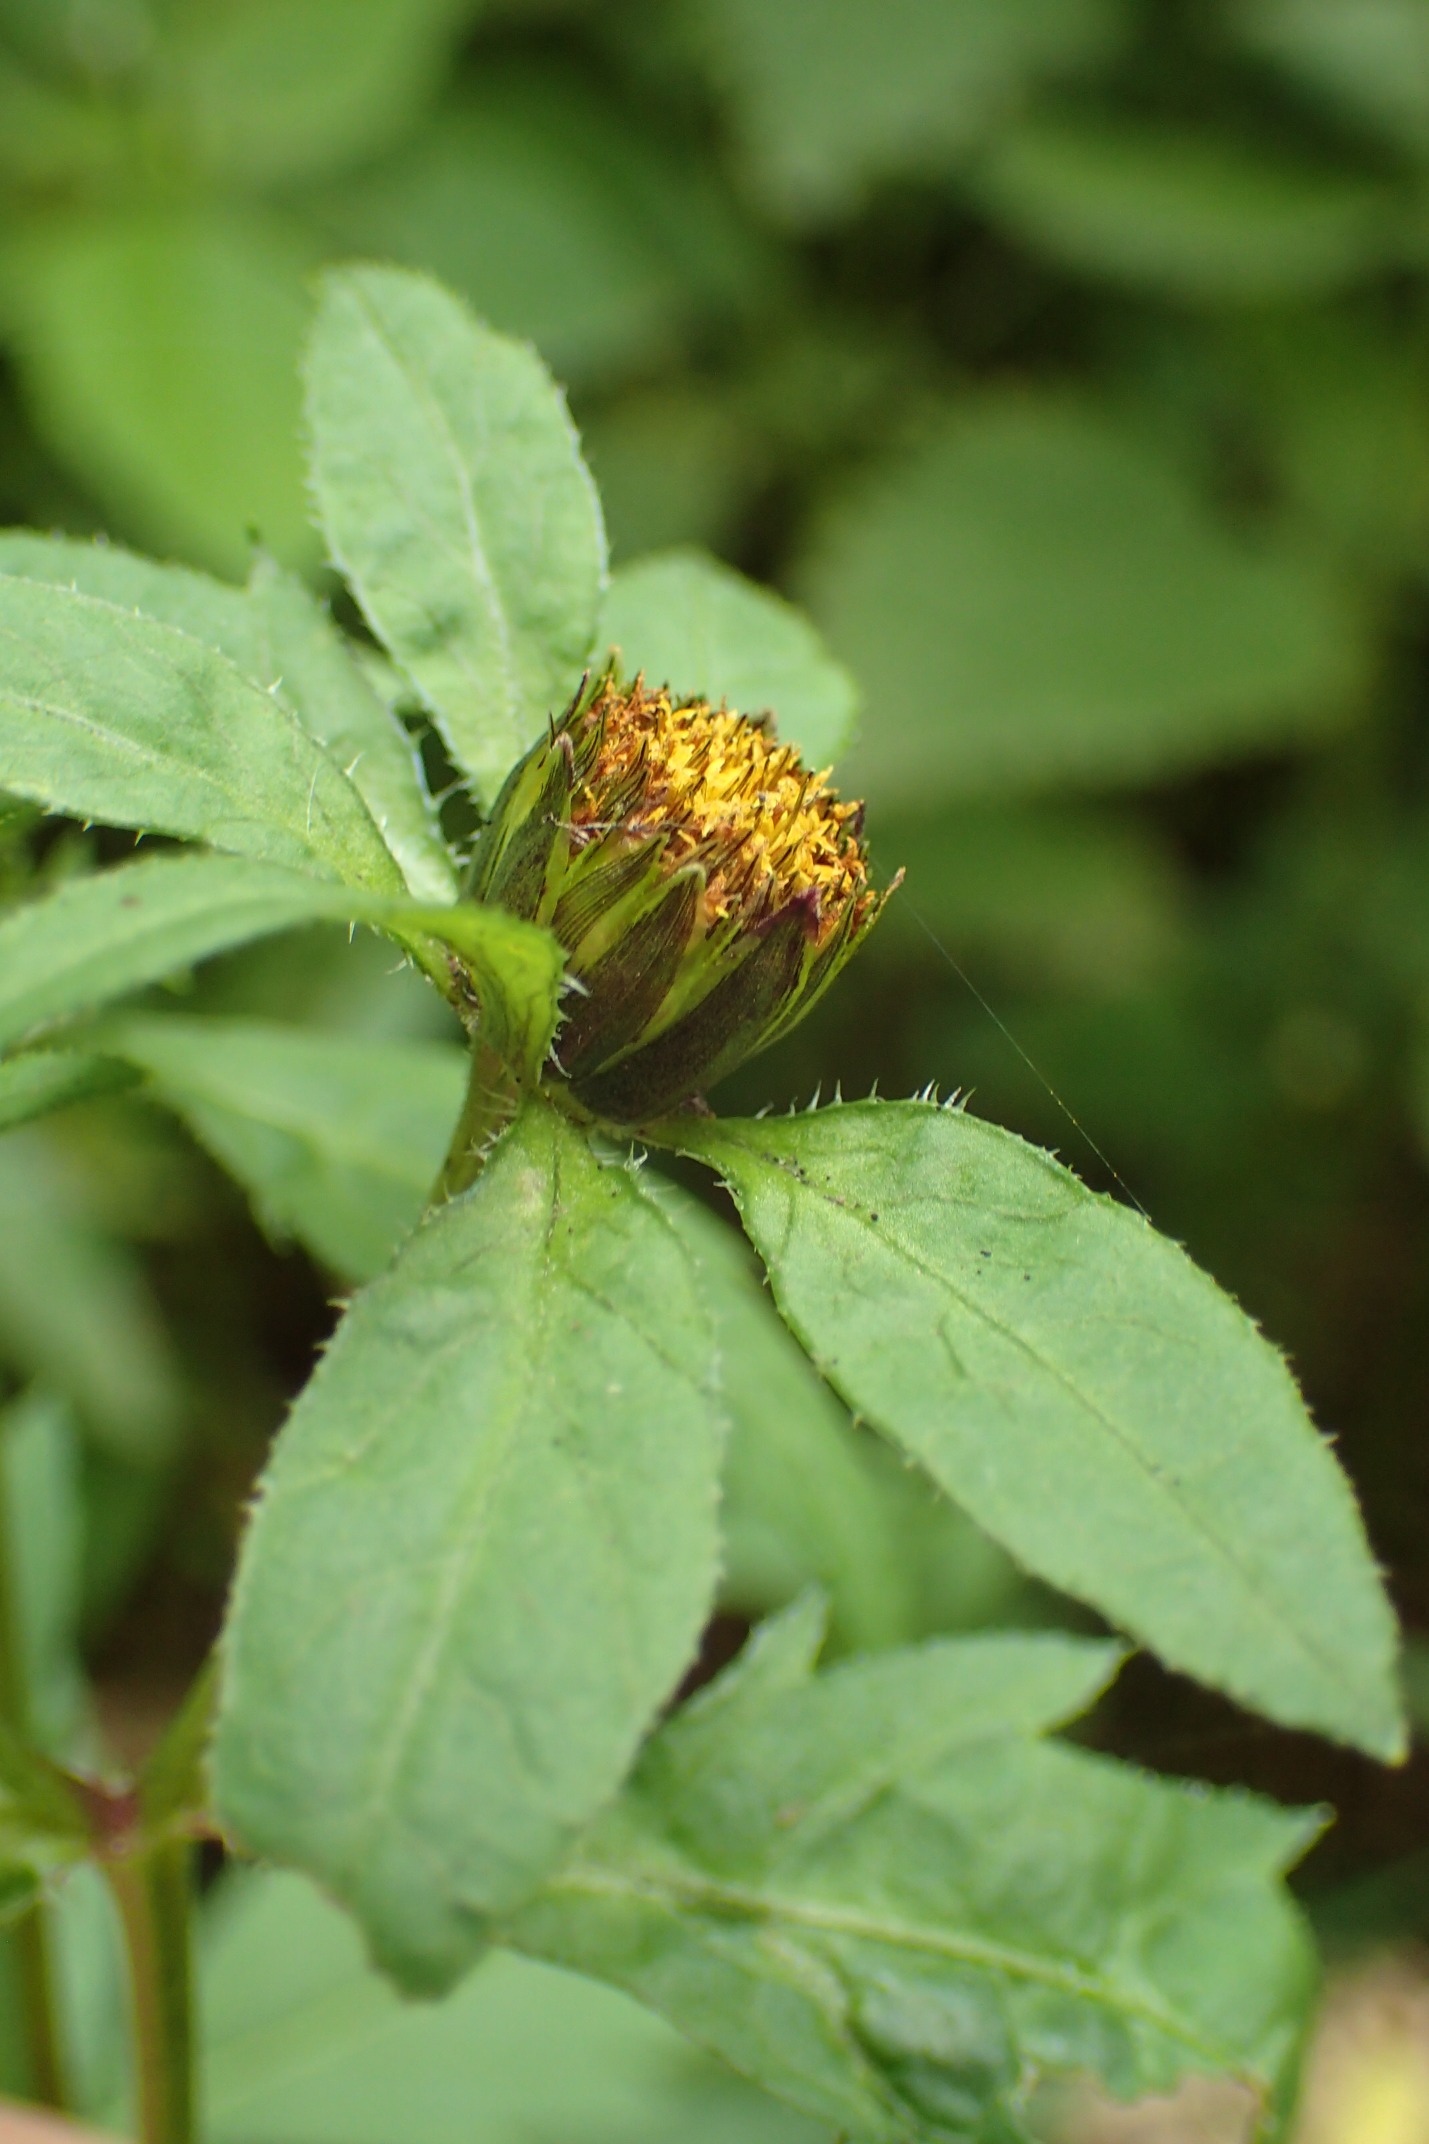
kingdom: Plantae
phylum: Tracheophyta
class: Magnoliopsida
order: Asterales
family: Asteraceae
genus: Bidens
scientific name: Bidens tripartita
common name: Fliget brøndsel
